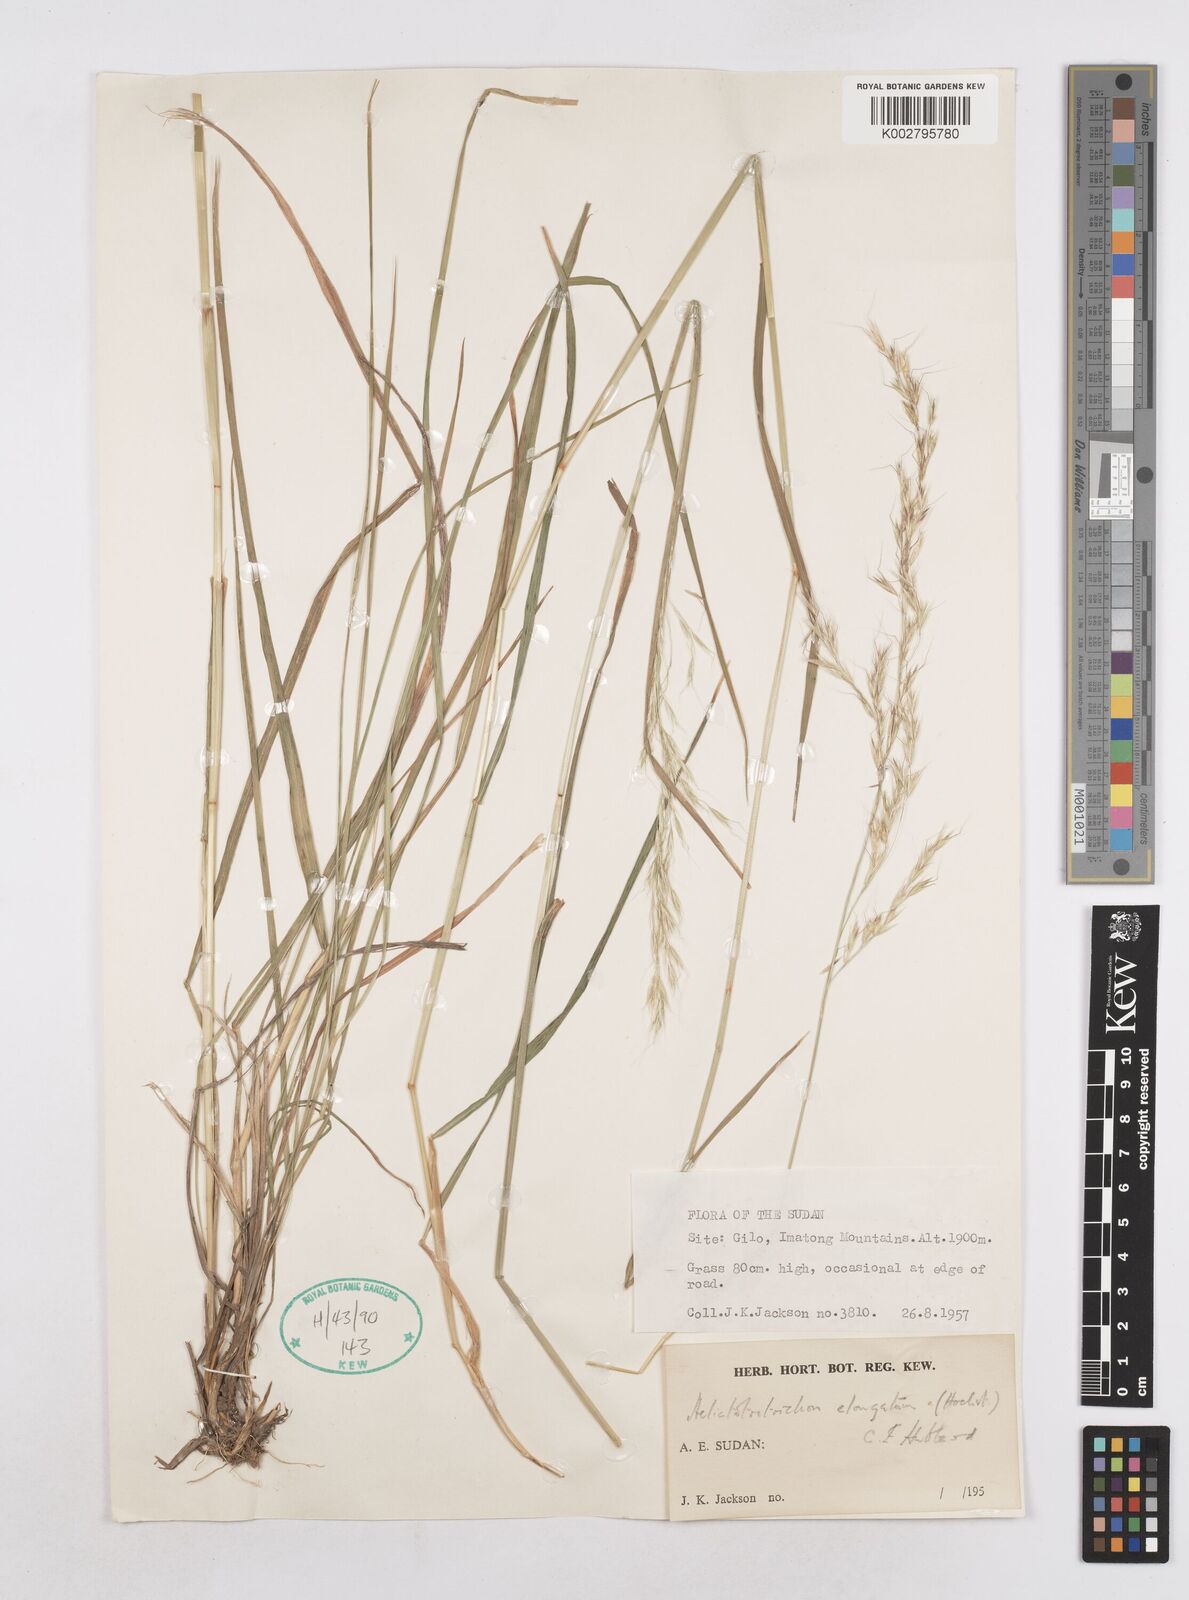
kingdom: Plantae
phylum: Tracheophyta
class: Liliopsida
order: Poales
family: Poaceae
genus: Trisetopsis
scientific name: Trisetopsis elongata
